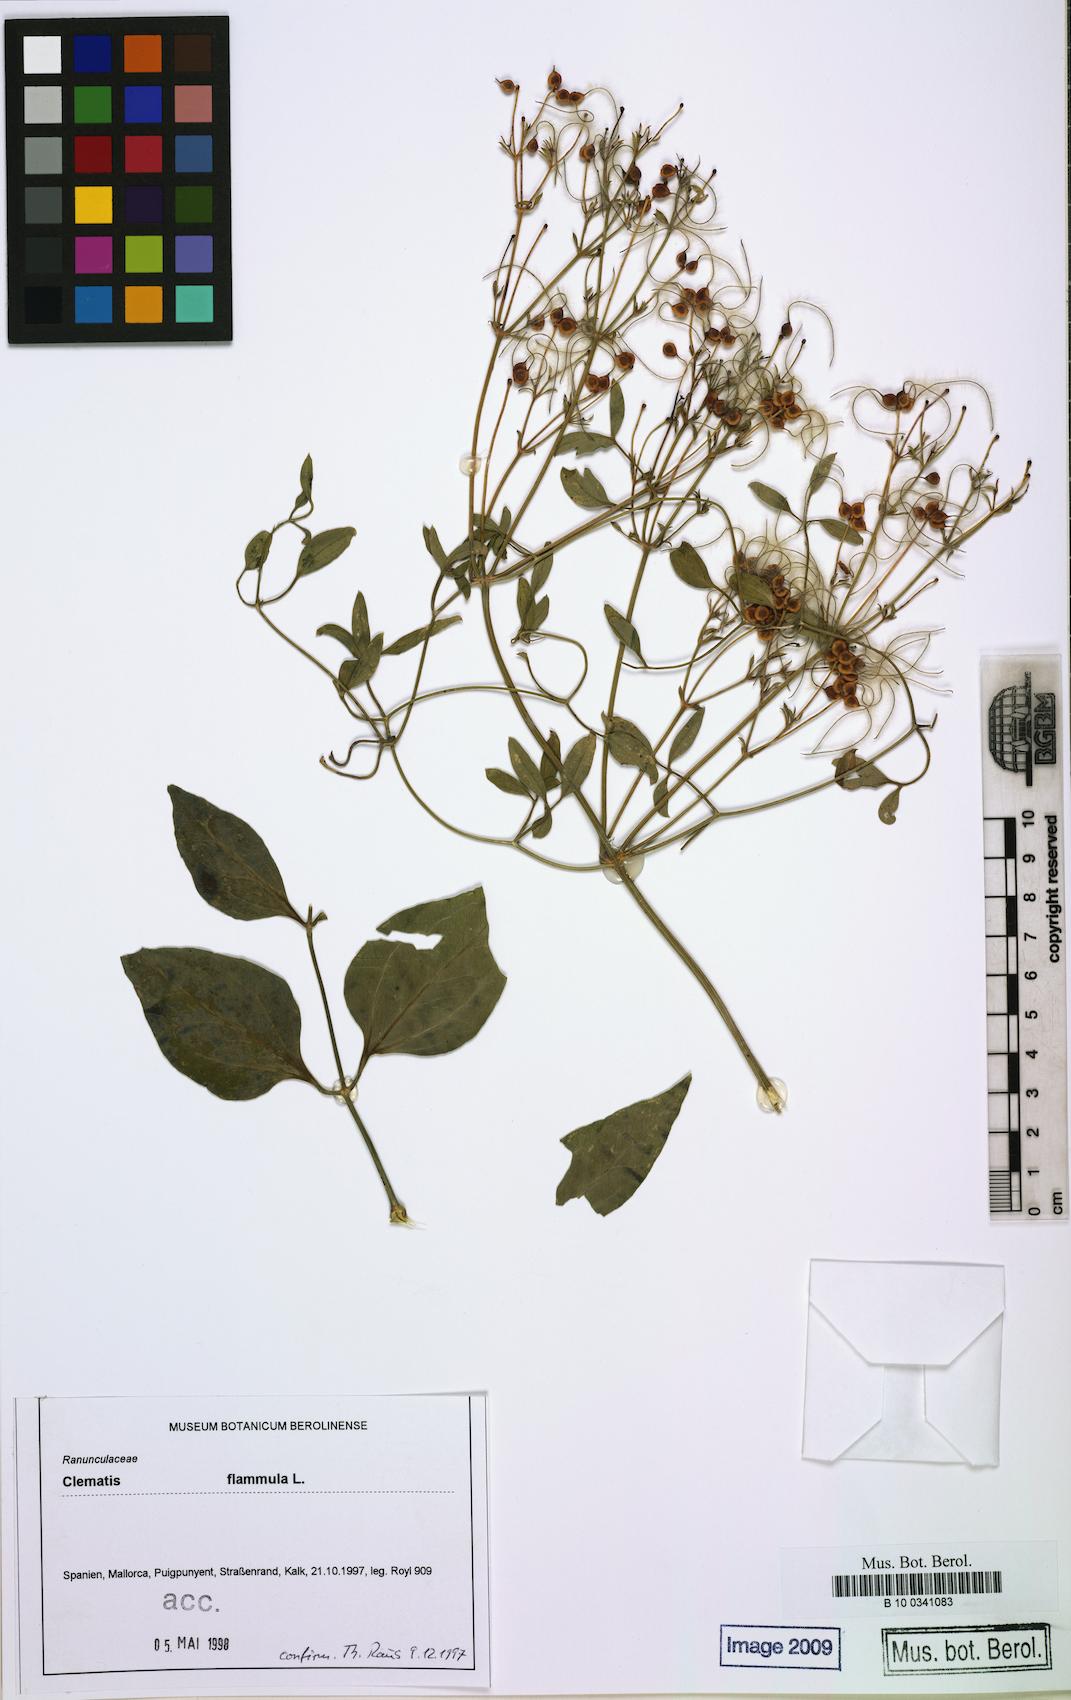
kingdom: Plantae
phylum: Tracheophyta
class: Magnoliopsida
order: Ranunculales
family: Ranunculaceae
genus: Clematis
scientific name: Clematis flammula
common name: Virgin's-bower
